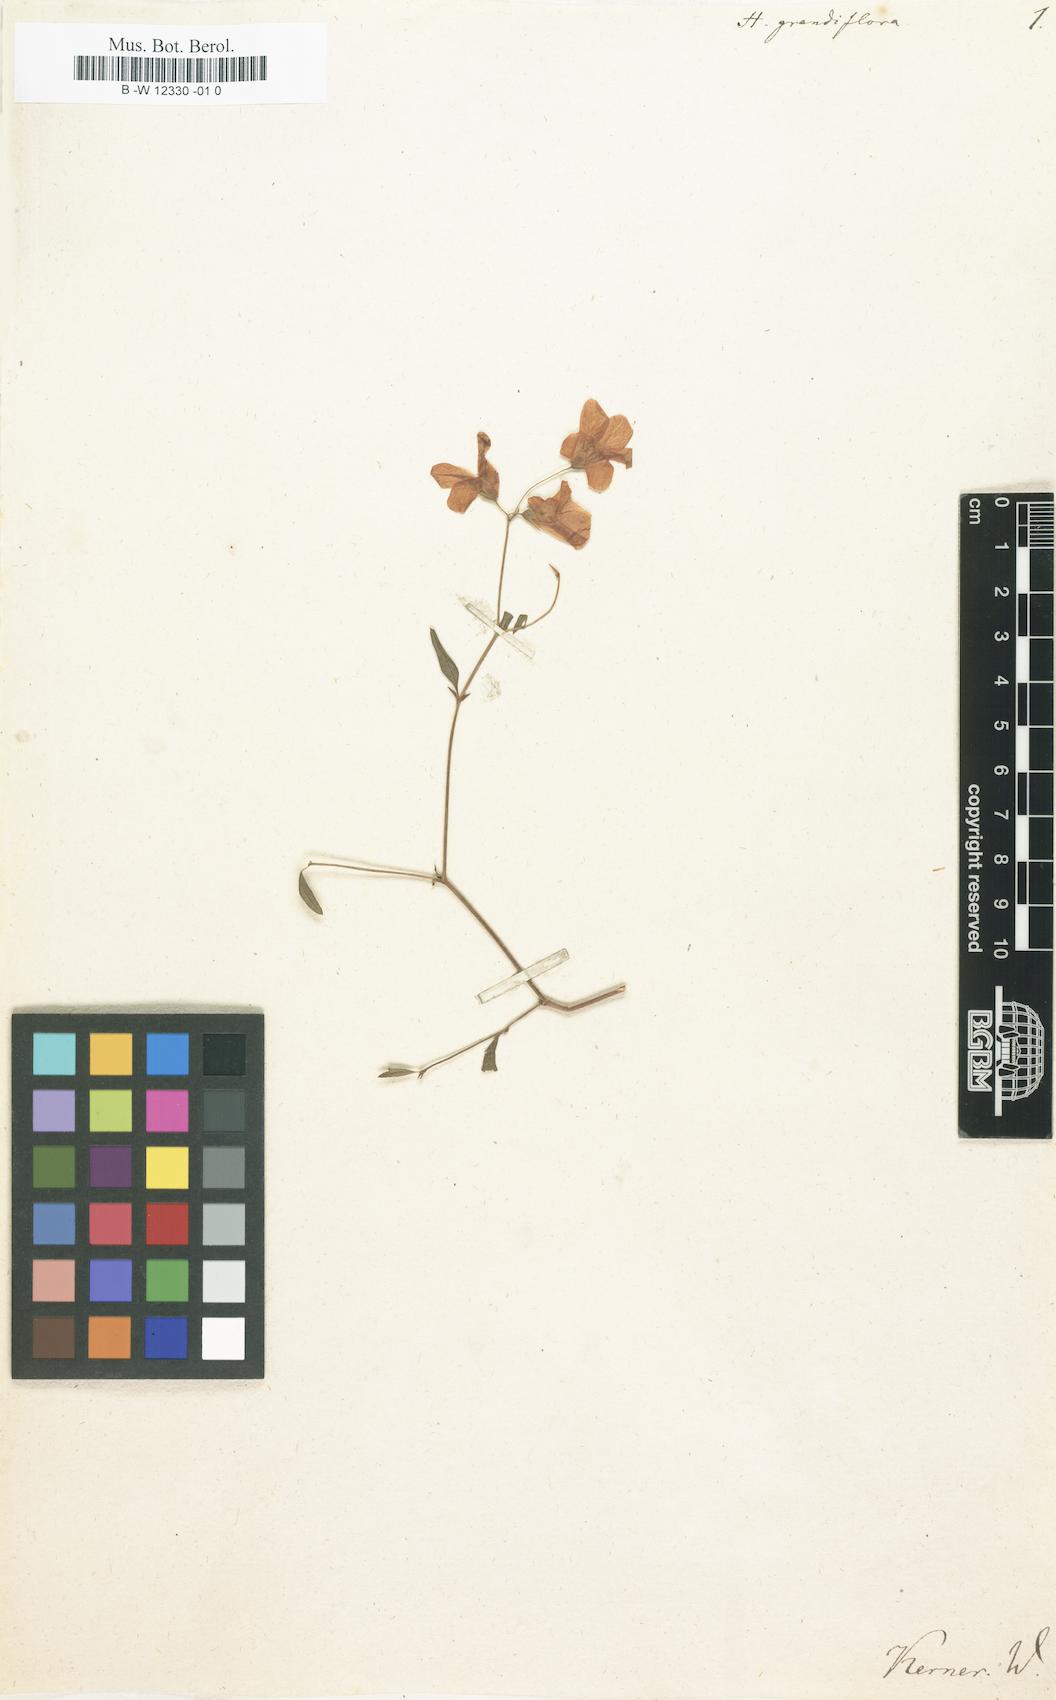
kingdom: Plantae
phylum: Tracheophyta
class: Magnoliopsida
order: Malvales
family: Malvaceae
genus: Hermannia
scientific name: Hermannia grandiflora
